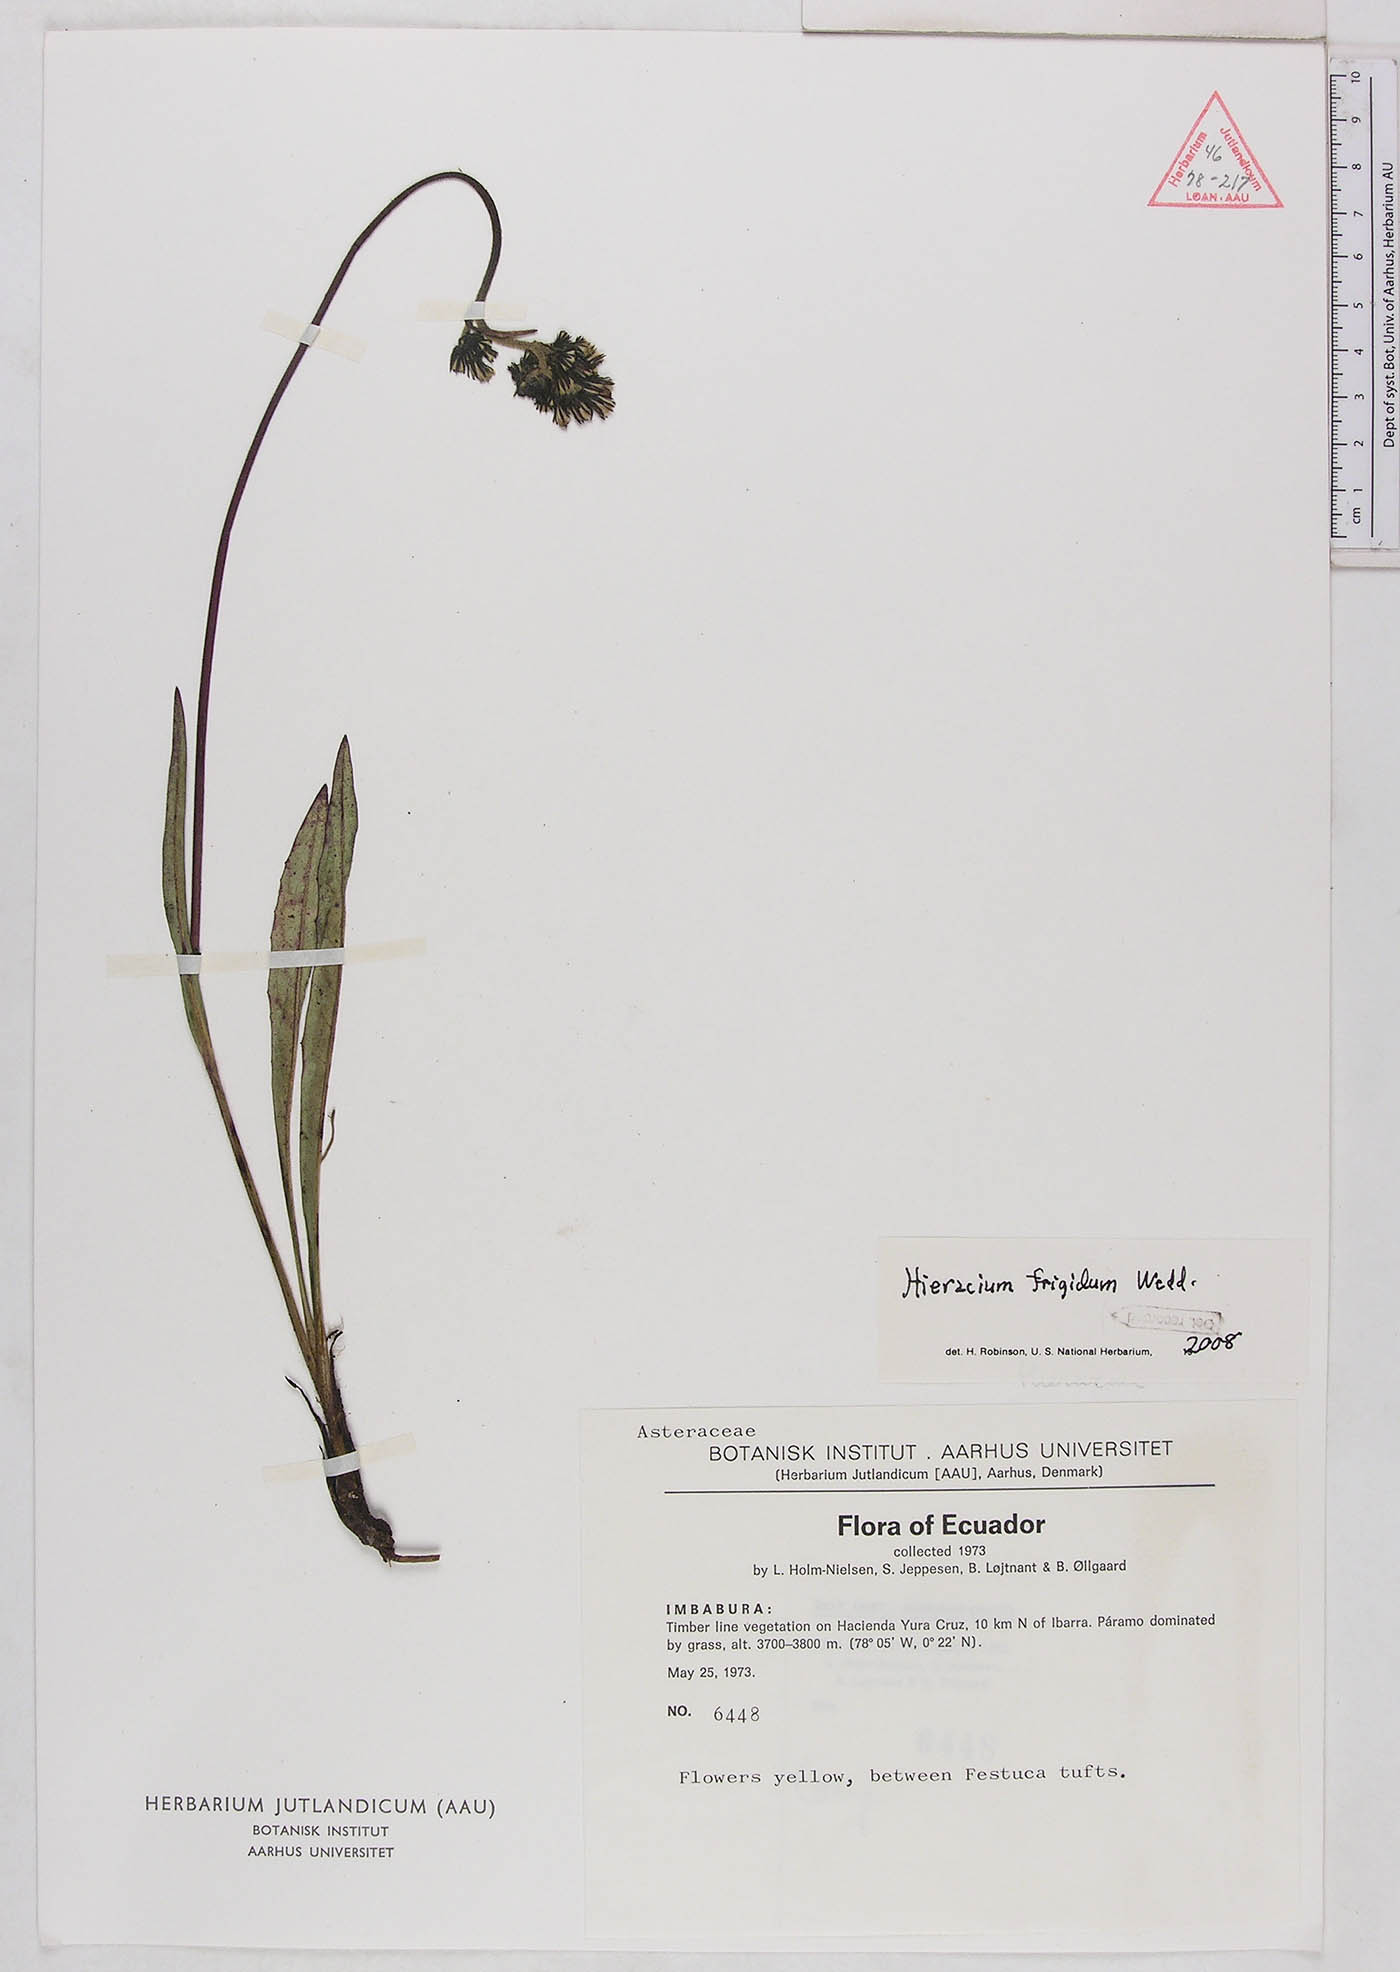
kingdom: Plantae
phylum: Tracheophyta
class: Magnoliopsida
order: Asterales
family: Asteraceae
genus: Hieracium
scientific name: Hieracium jubatum
